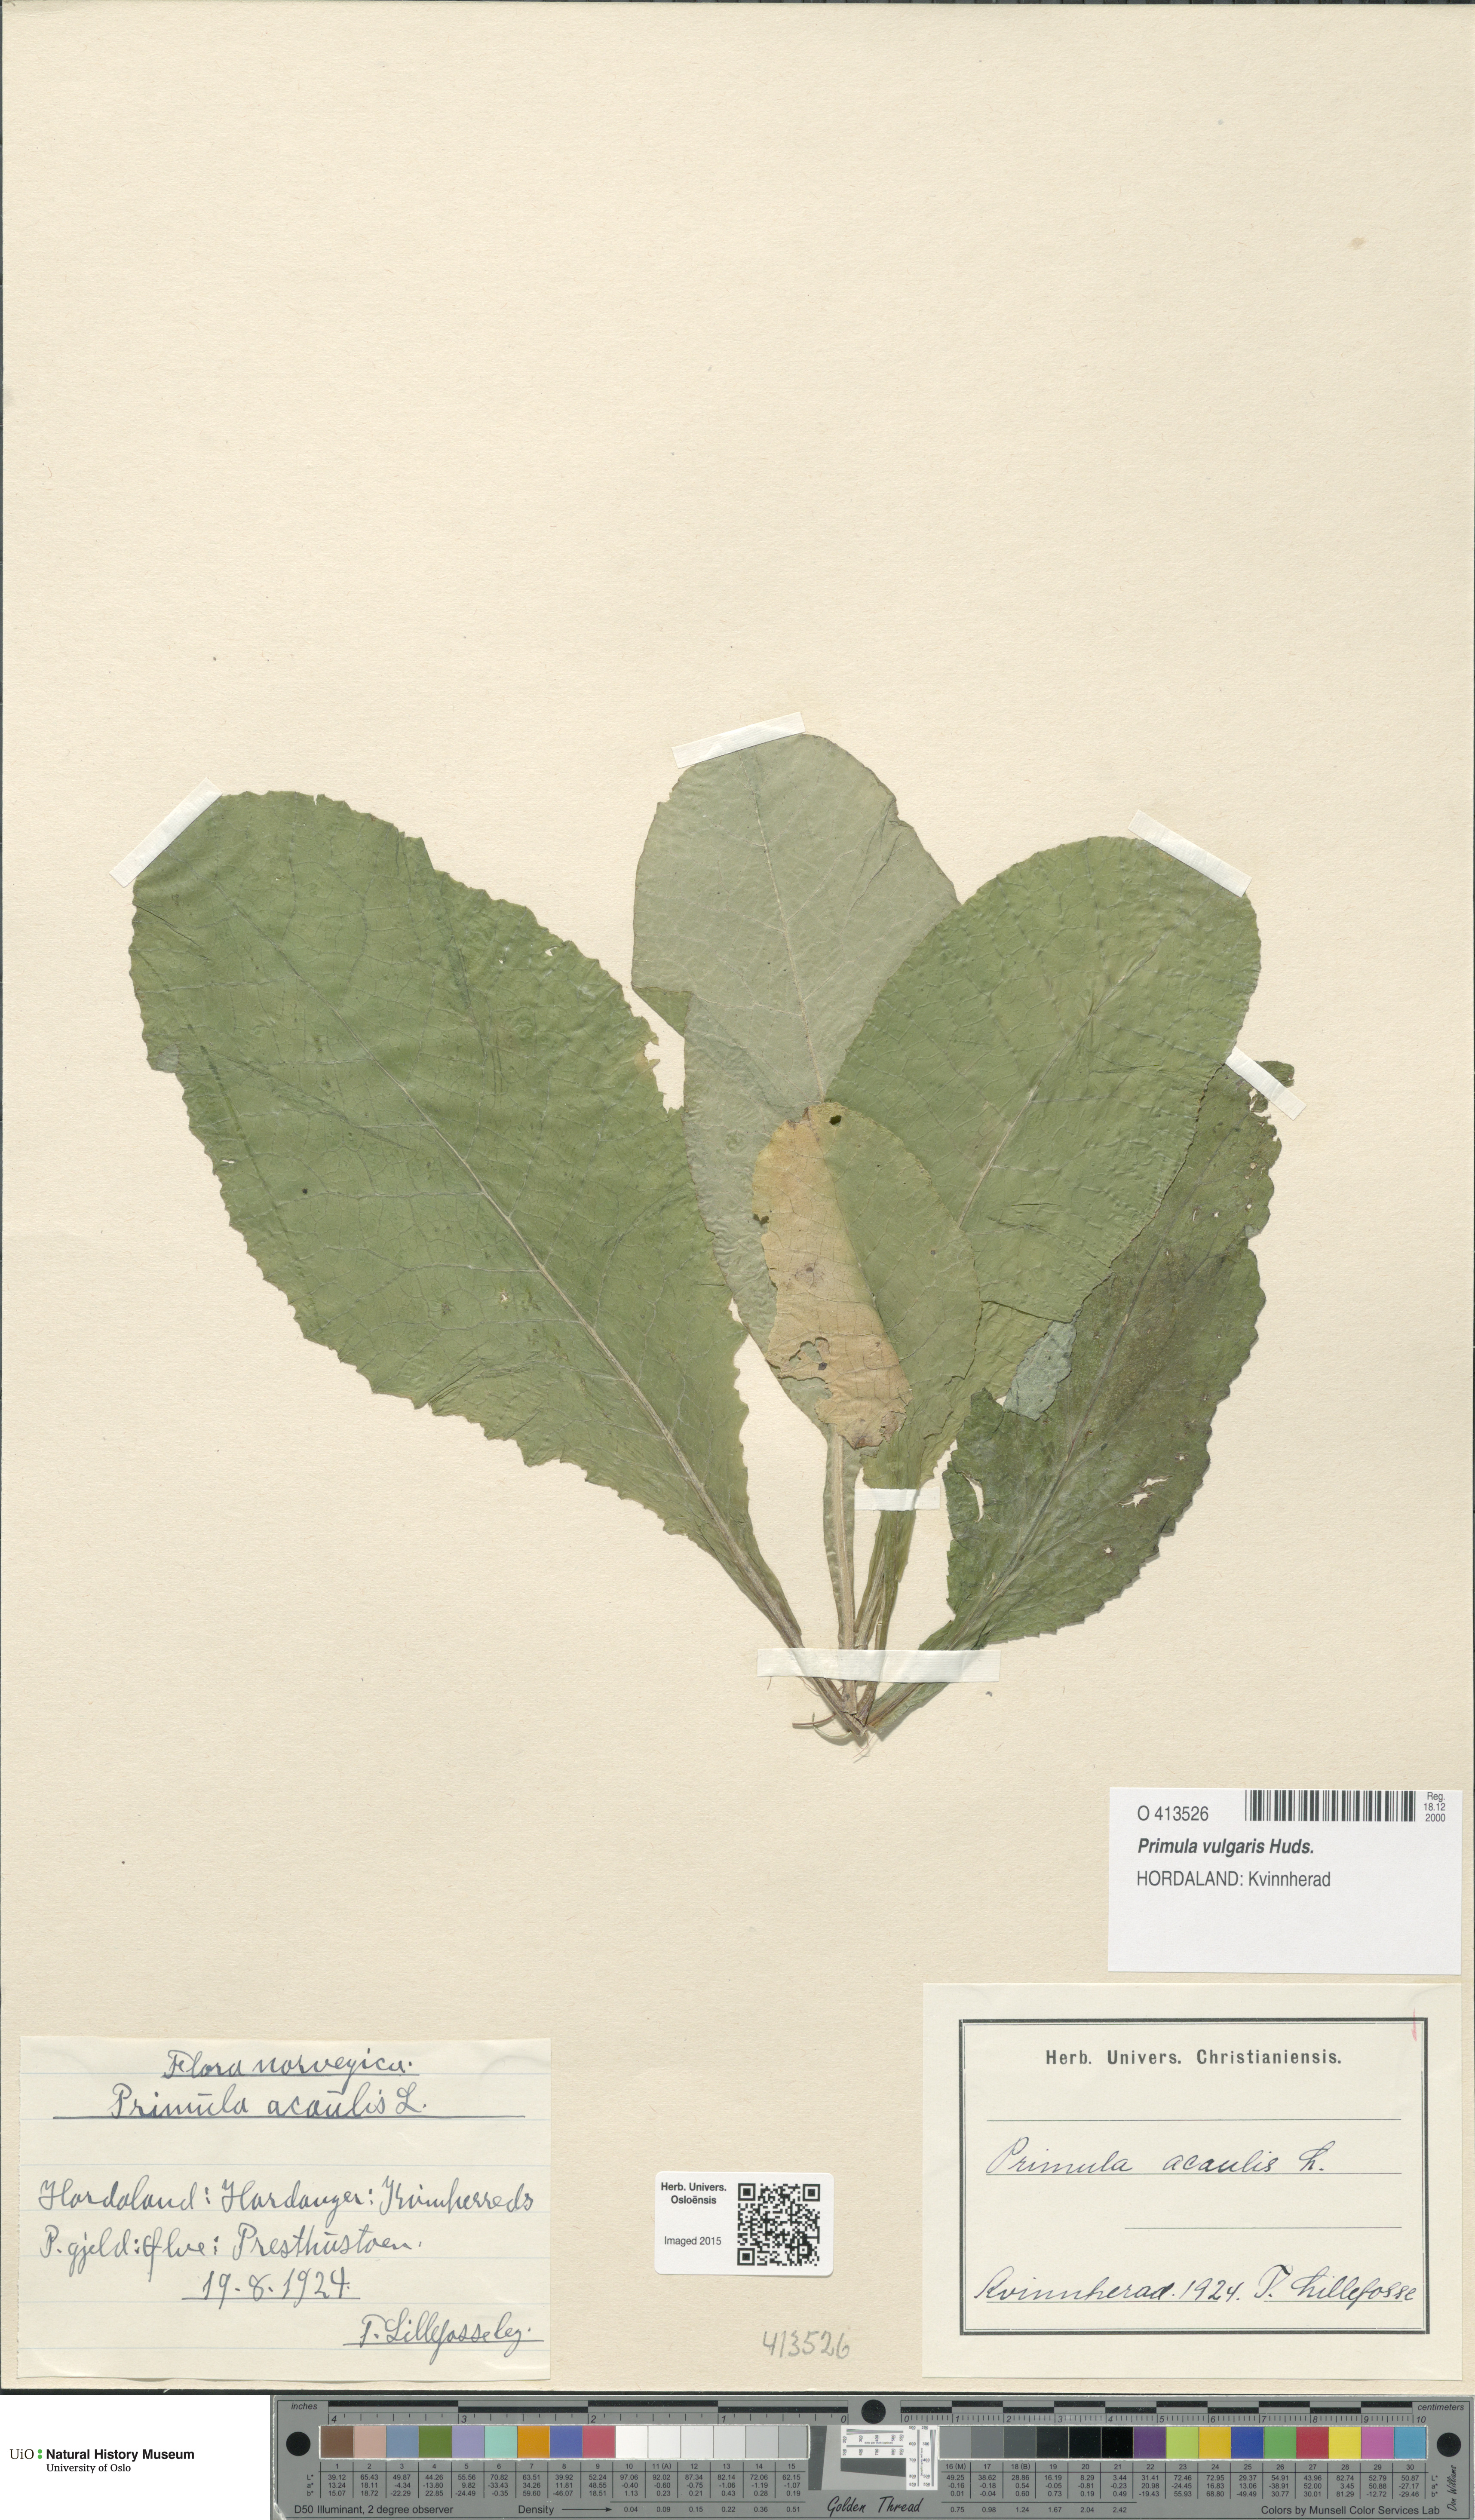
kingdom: Plantae
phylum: Tracheophyta
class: Magnoliopsida
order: Ericales
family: Primulaceae
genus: Primula
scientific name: Primula vulgaris
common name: Primrose
